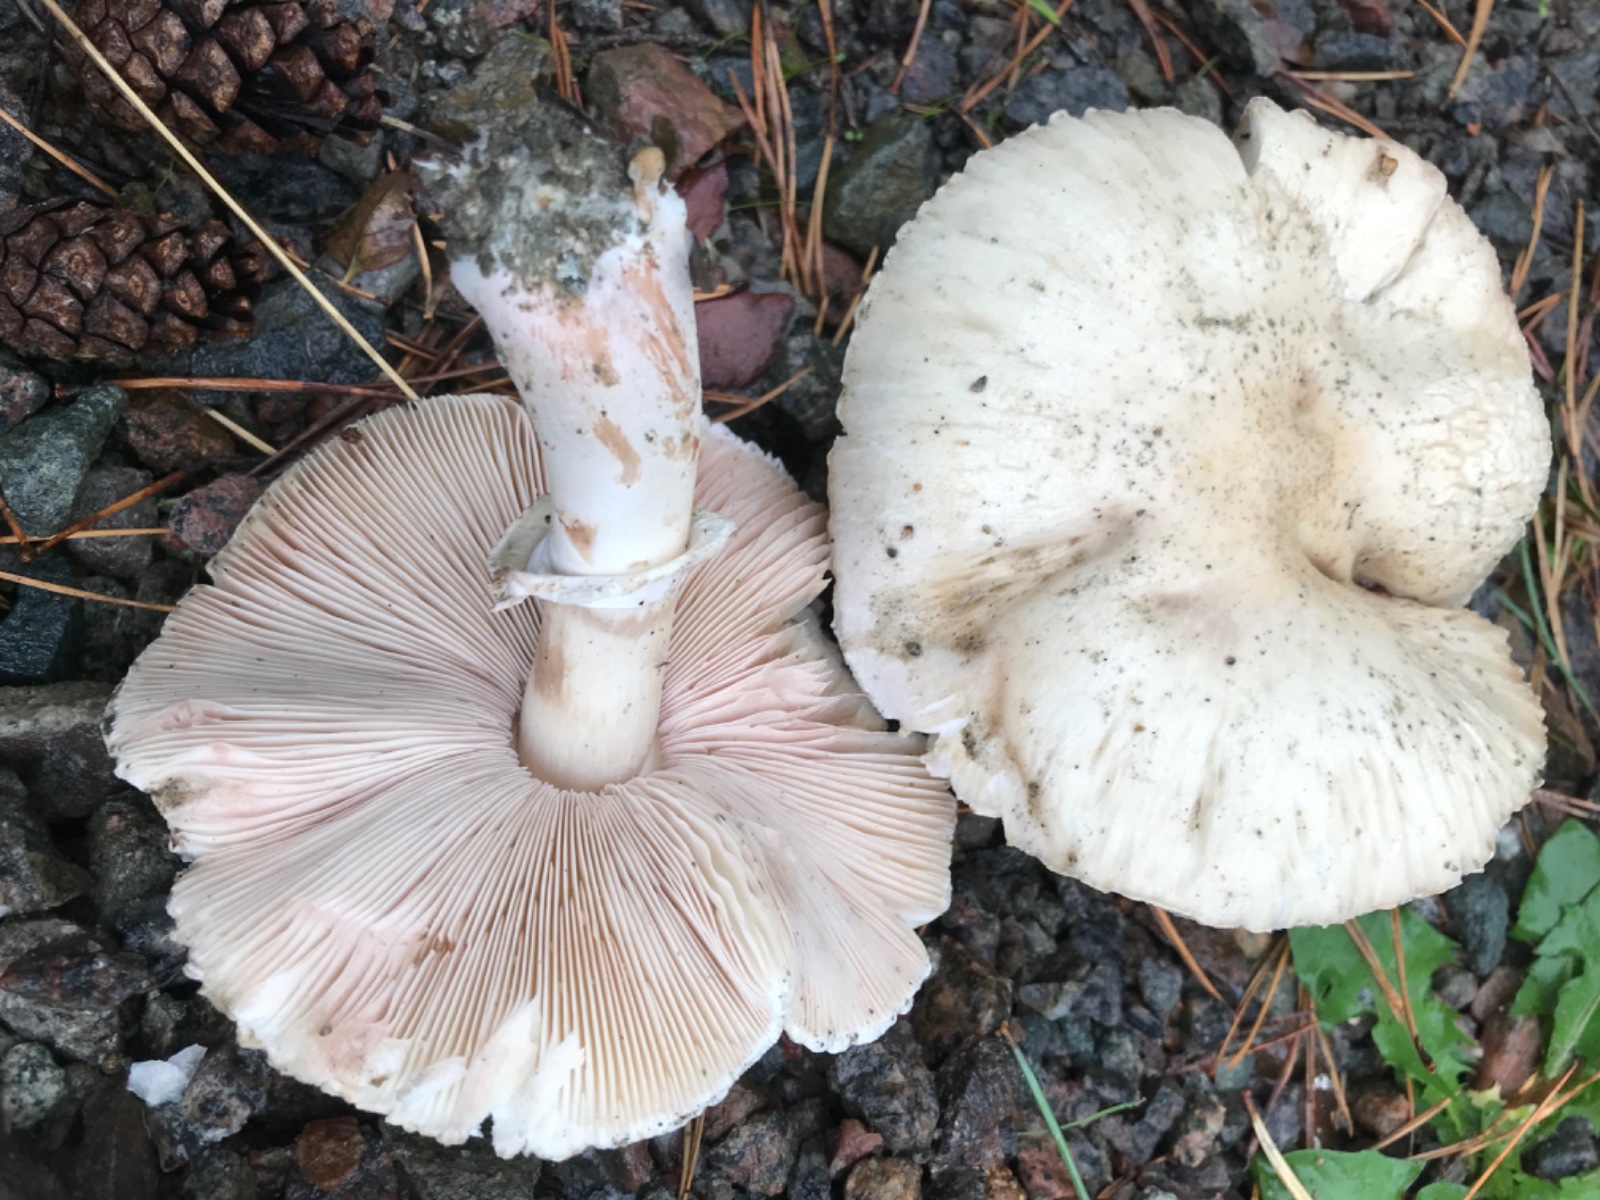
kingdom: Fungi
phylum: Basidiomycota
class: Agaricomycetes
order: Agaricales
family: Agaricaceae
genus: Leucoagaricus
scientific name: Leucoagaricus leucothites
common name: rosabladet silkehat
